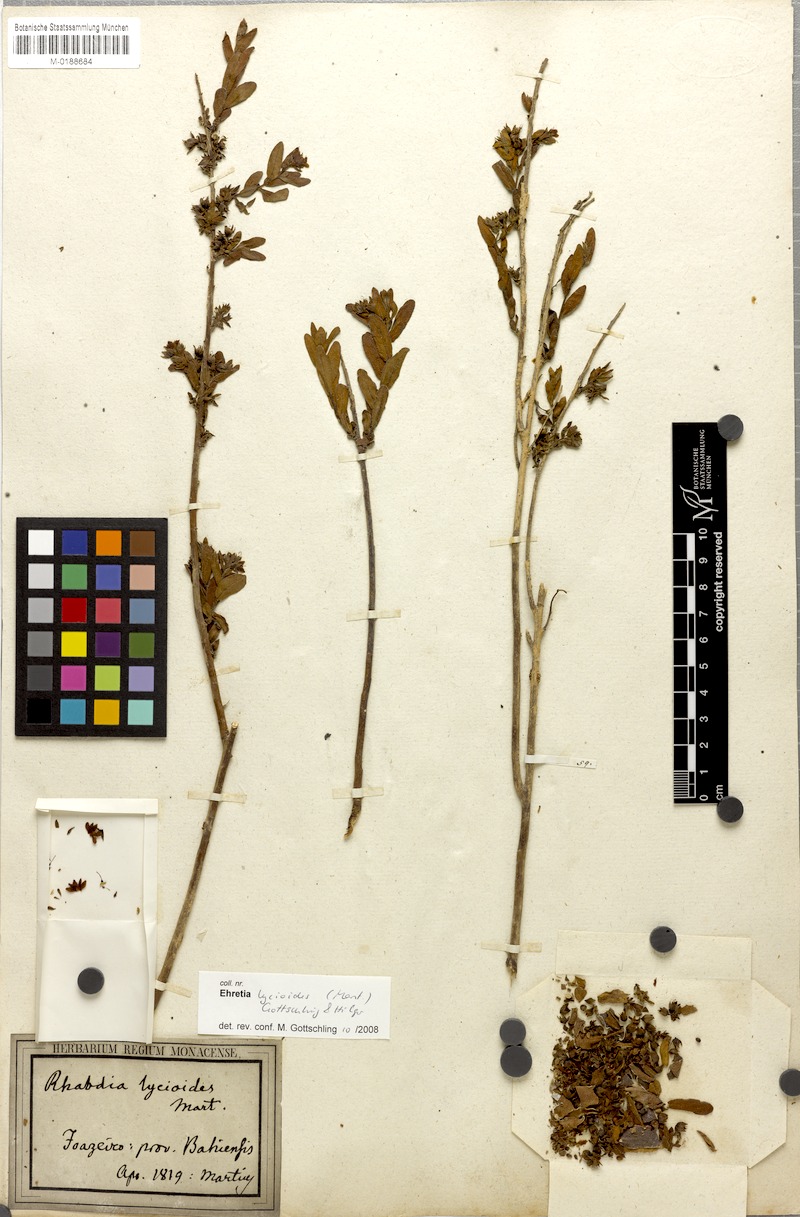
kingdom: Plantae
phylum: Tracheophyta
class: Magnoliopsida
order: Boraginales
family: Ehretiaceae
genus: Ehretia
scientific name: Ehretia lycioides
